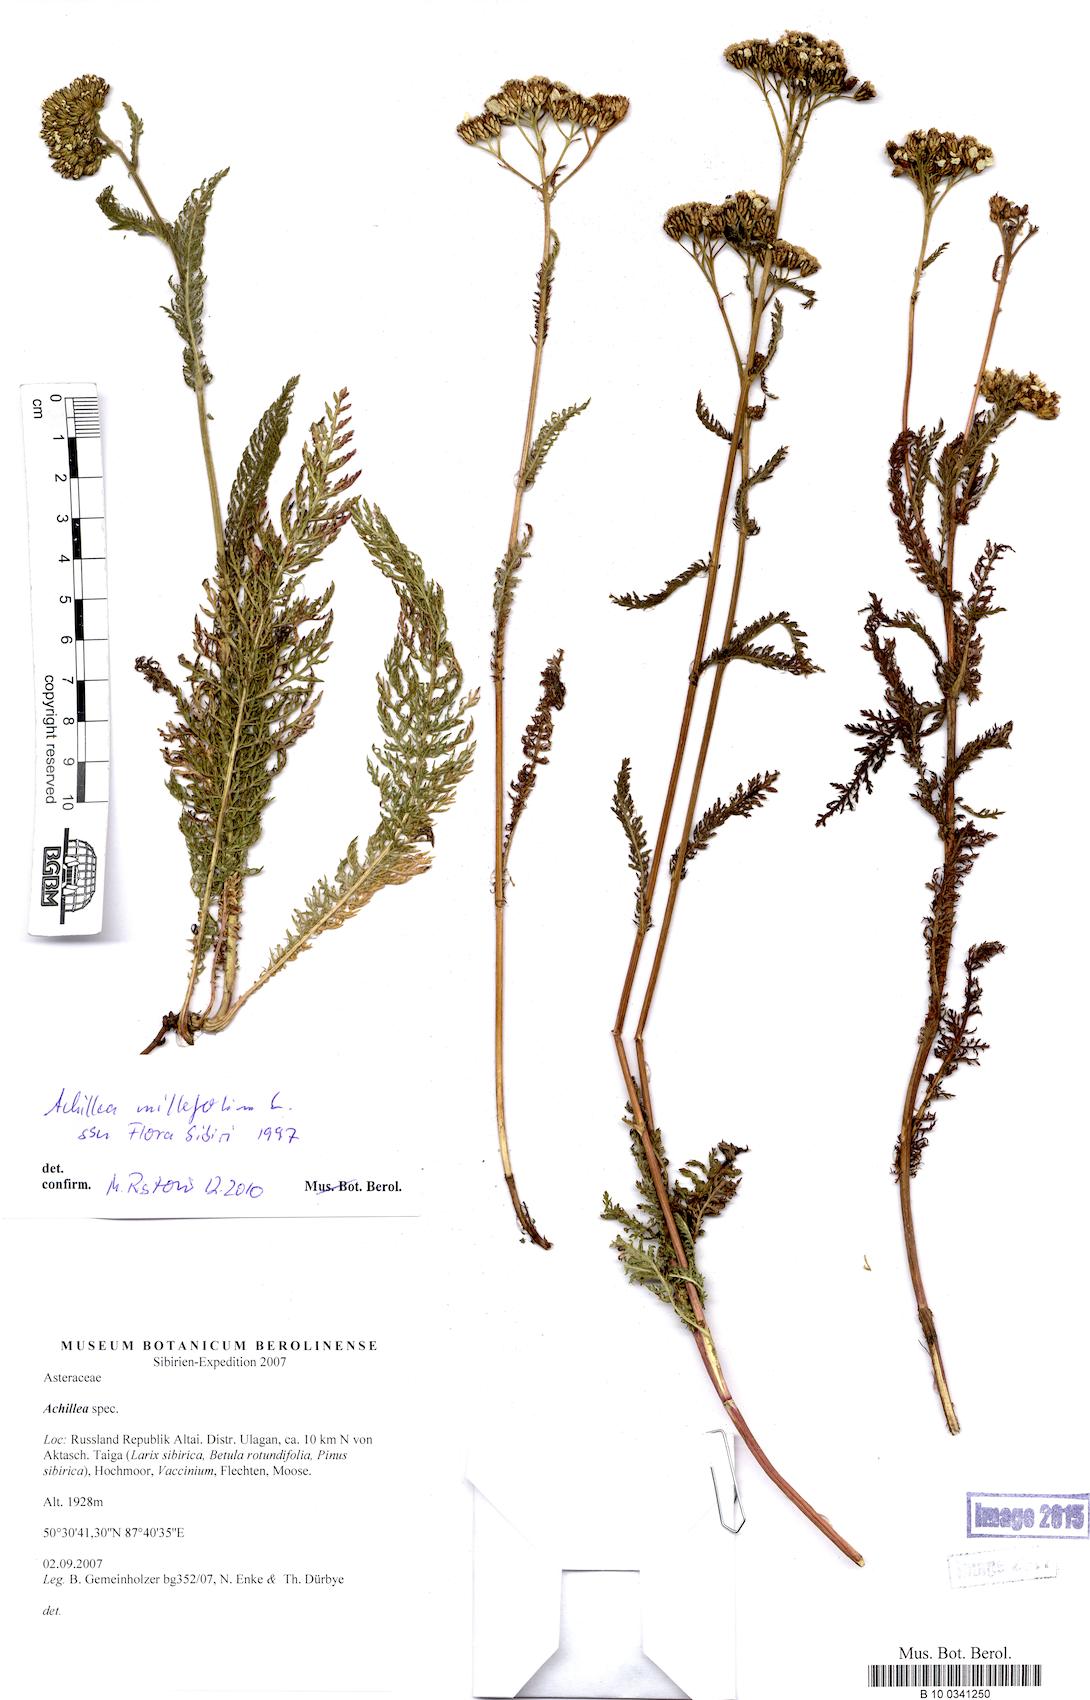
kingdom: Plantae
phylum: Tracheophyta
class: Magnoliopsida
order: Asterales
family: Asteraceae
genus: Achillea
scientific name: Achillea millefolium
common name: Yarrow
